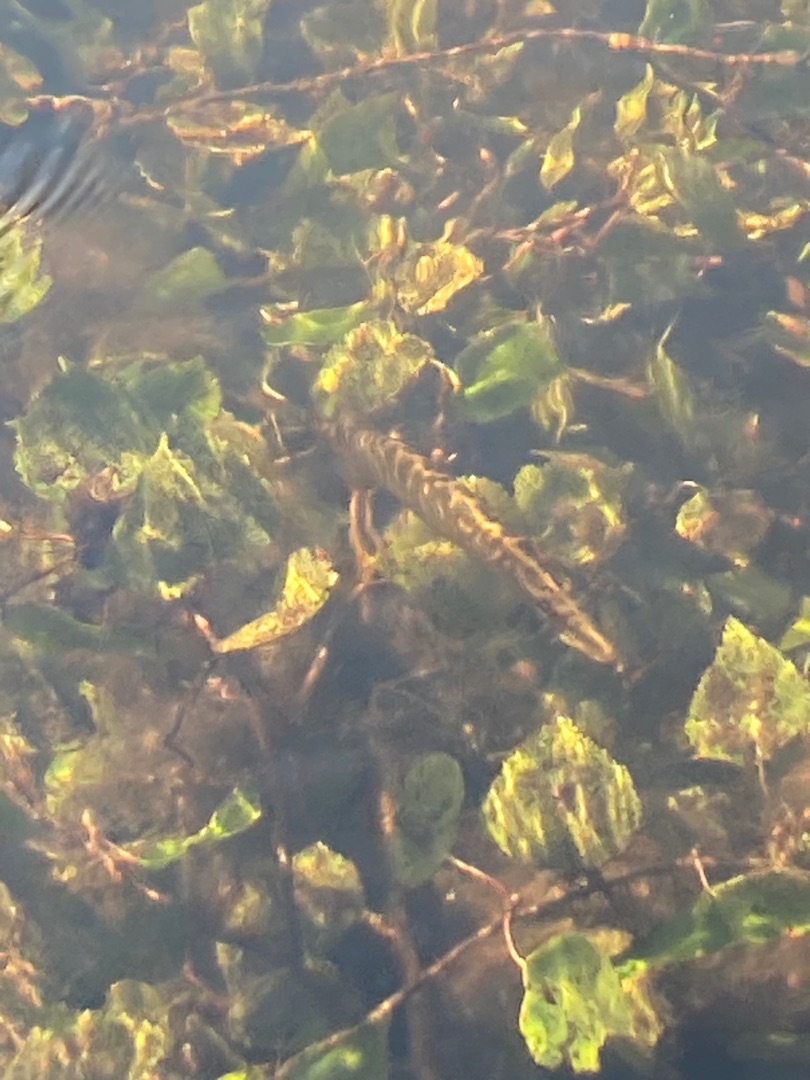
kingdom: Animalia
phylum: Chordata
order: Esociformes
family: Esocidae
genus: Esox
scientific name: Esox lucius
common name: Gedde
